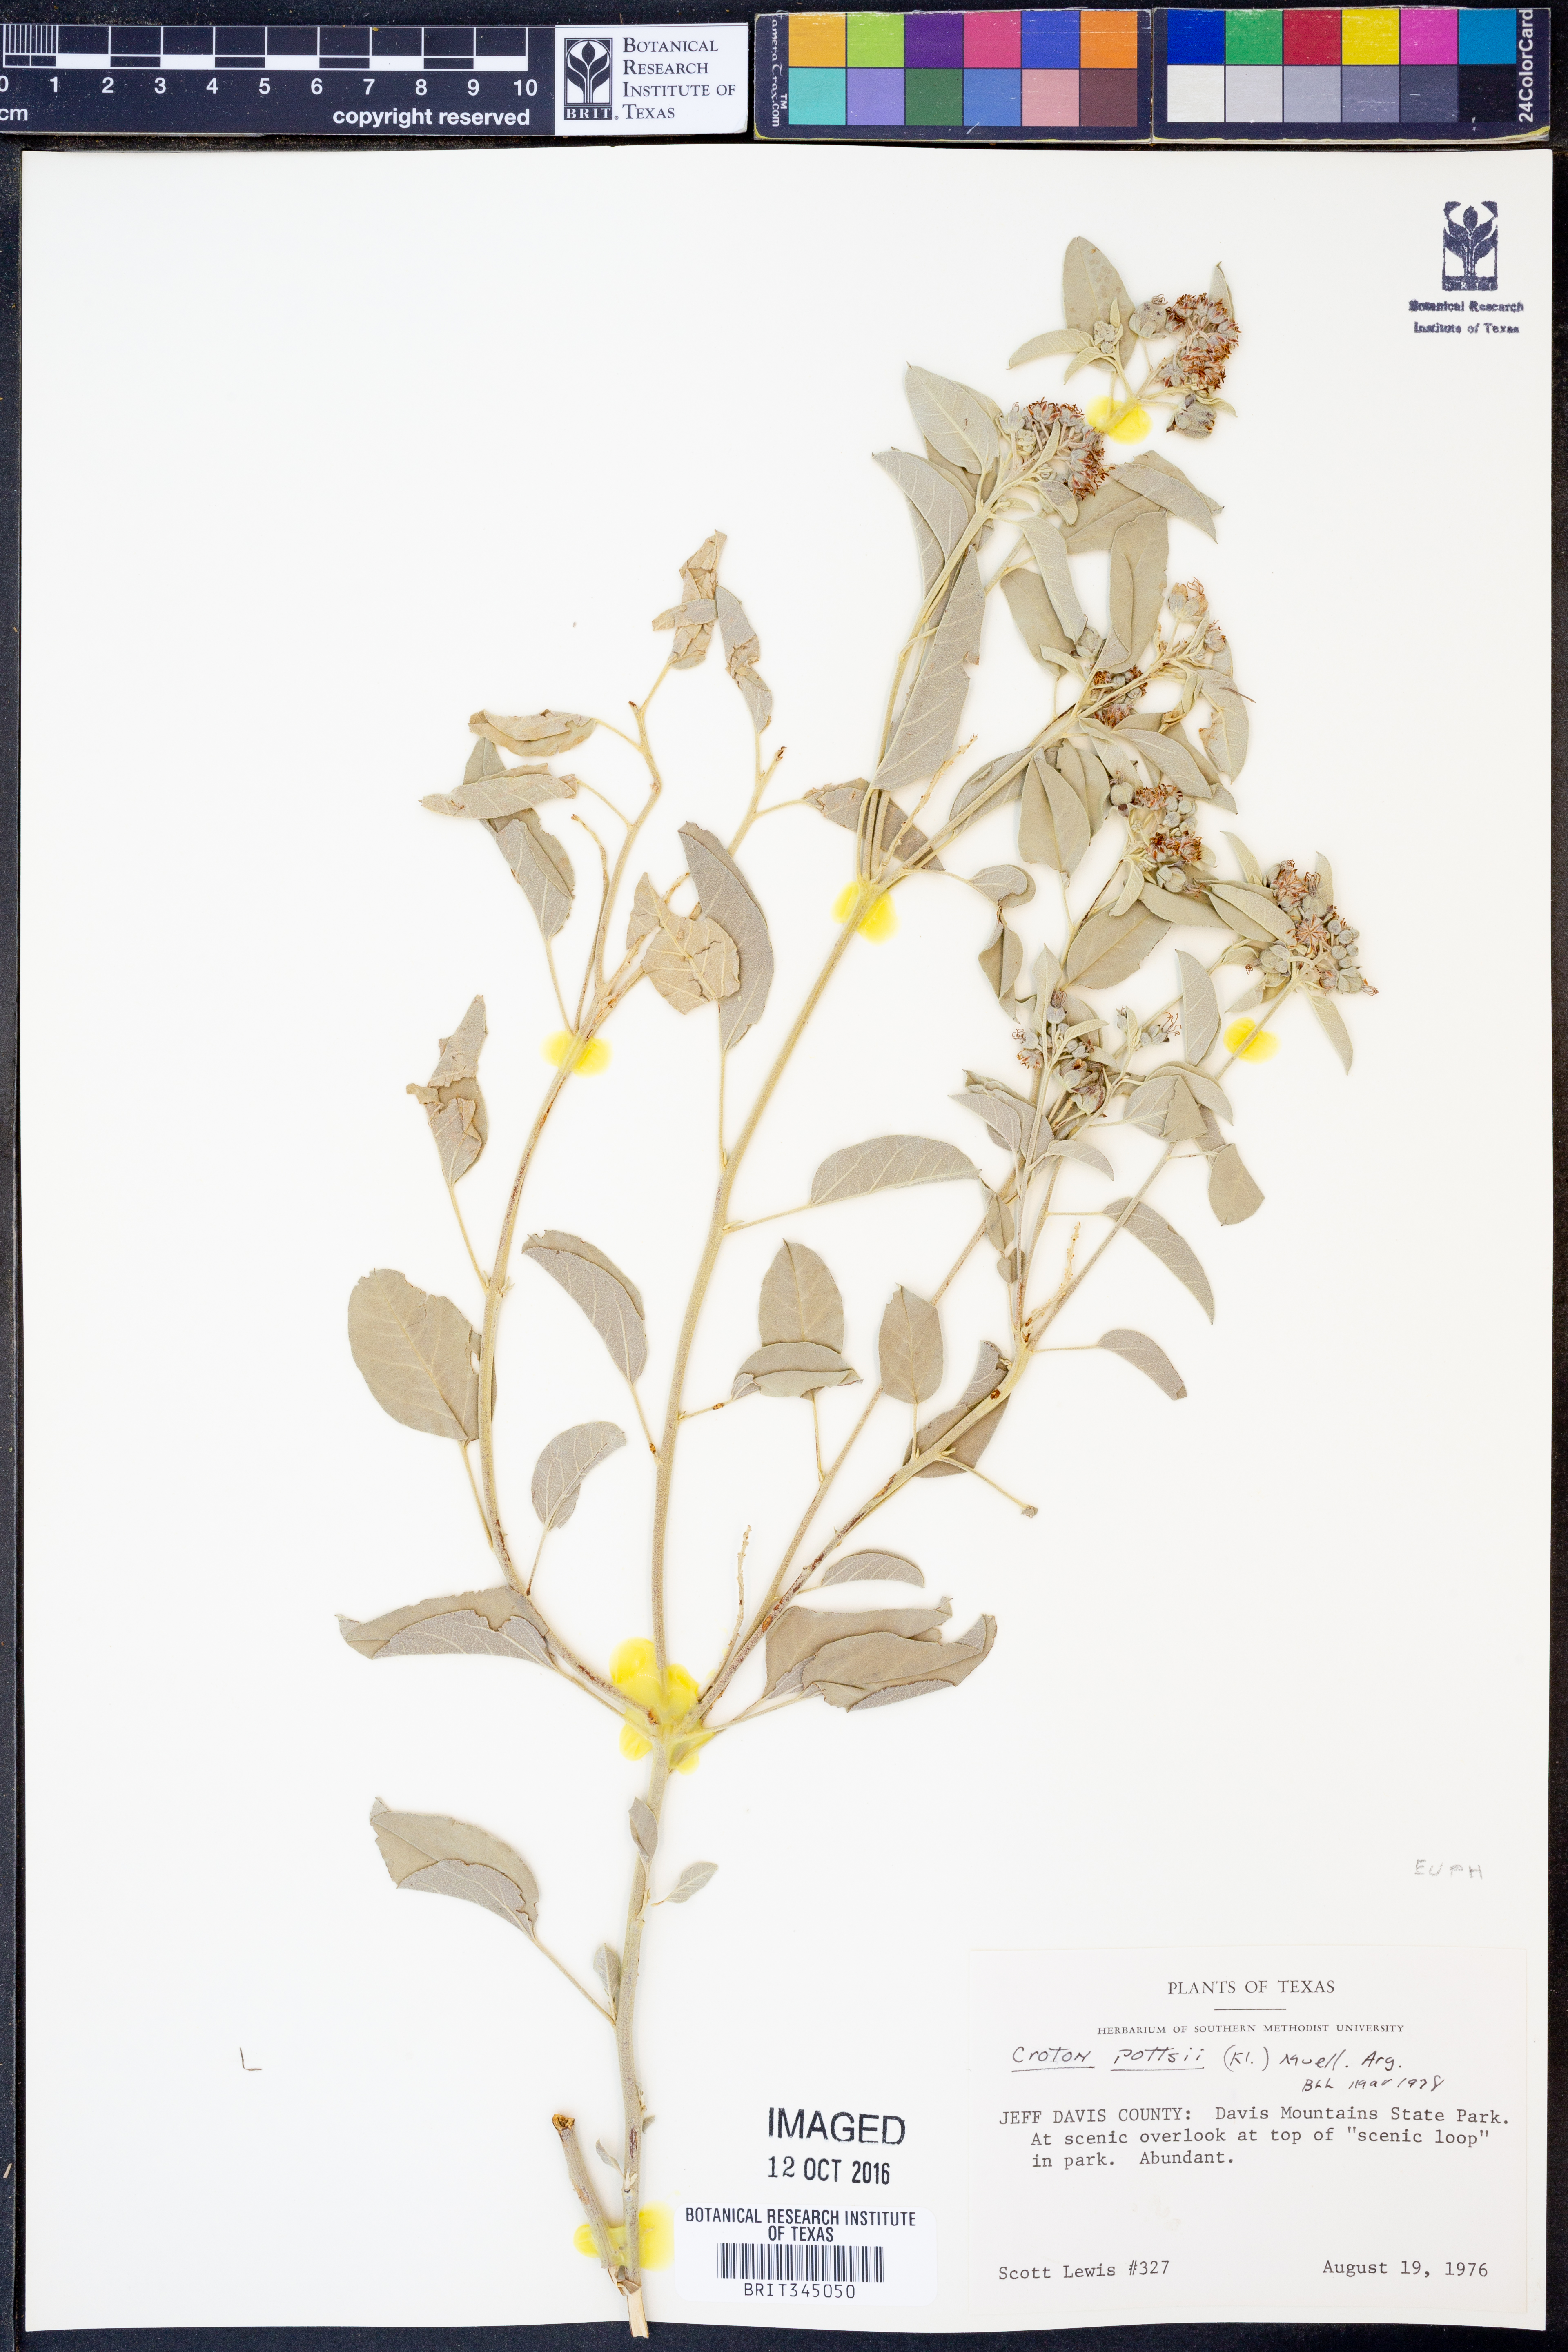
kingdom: Plantae
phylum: Tracheophyta
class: Magnoliopsida
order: Malpighiales
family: Euphorbiaceae
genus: Croton
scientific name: Croton pottsii
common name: Leatherweed
